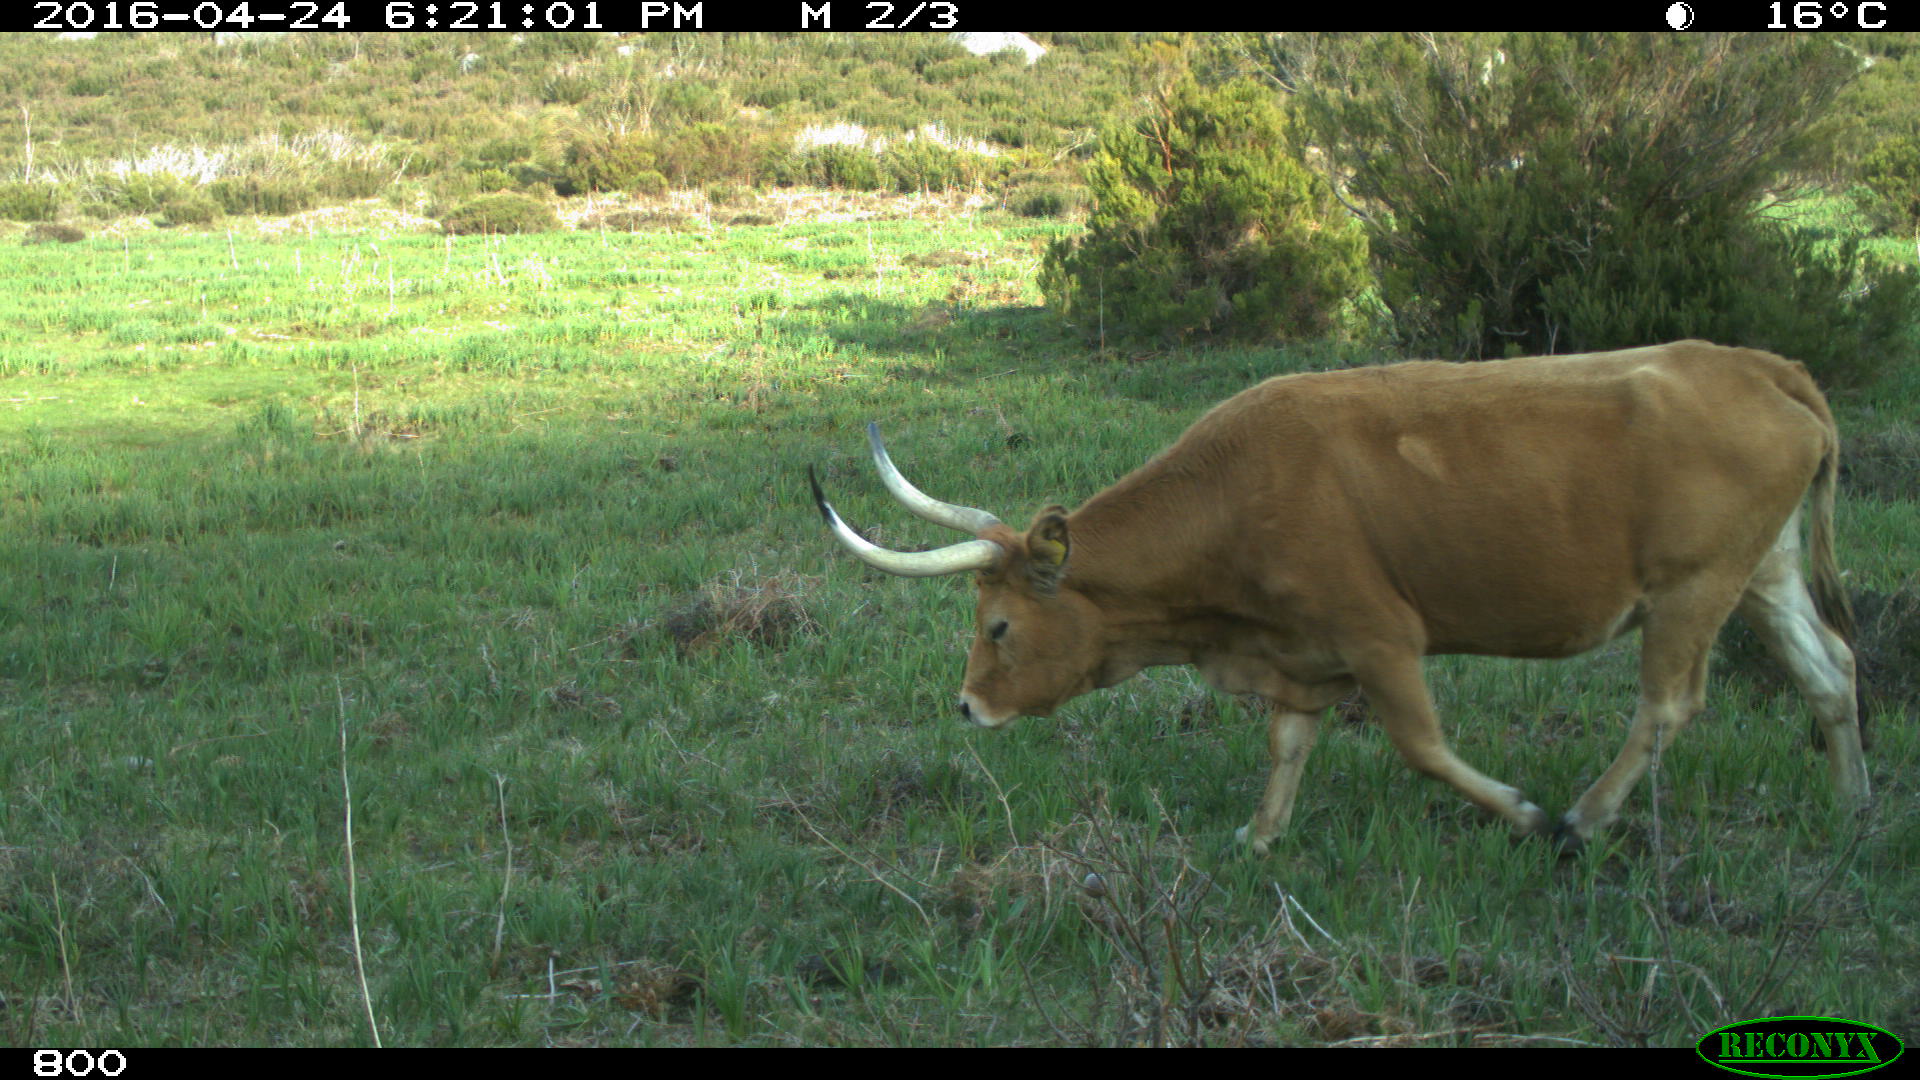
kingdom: Animalia
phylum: Chordata
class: Mammalia
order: Artiodactyla
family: Bovidae
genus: Bos
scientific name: Bos taurus
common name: Domesticated cattle
